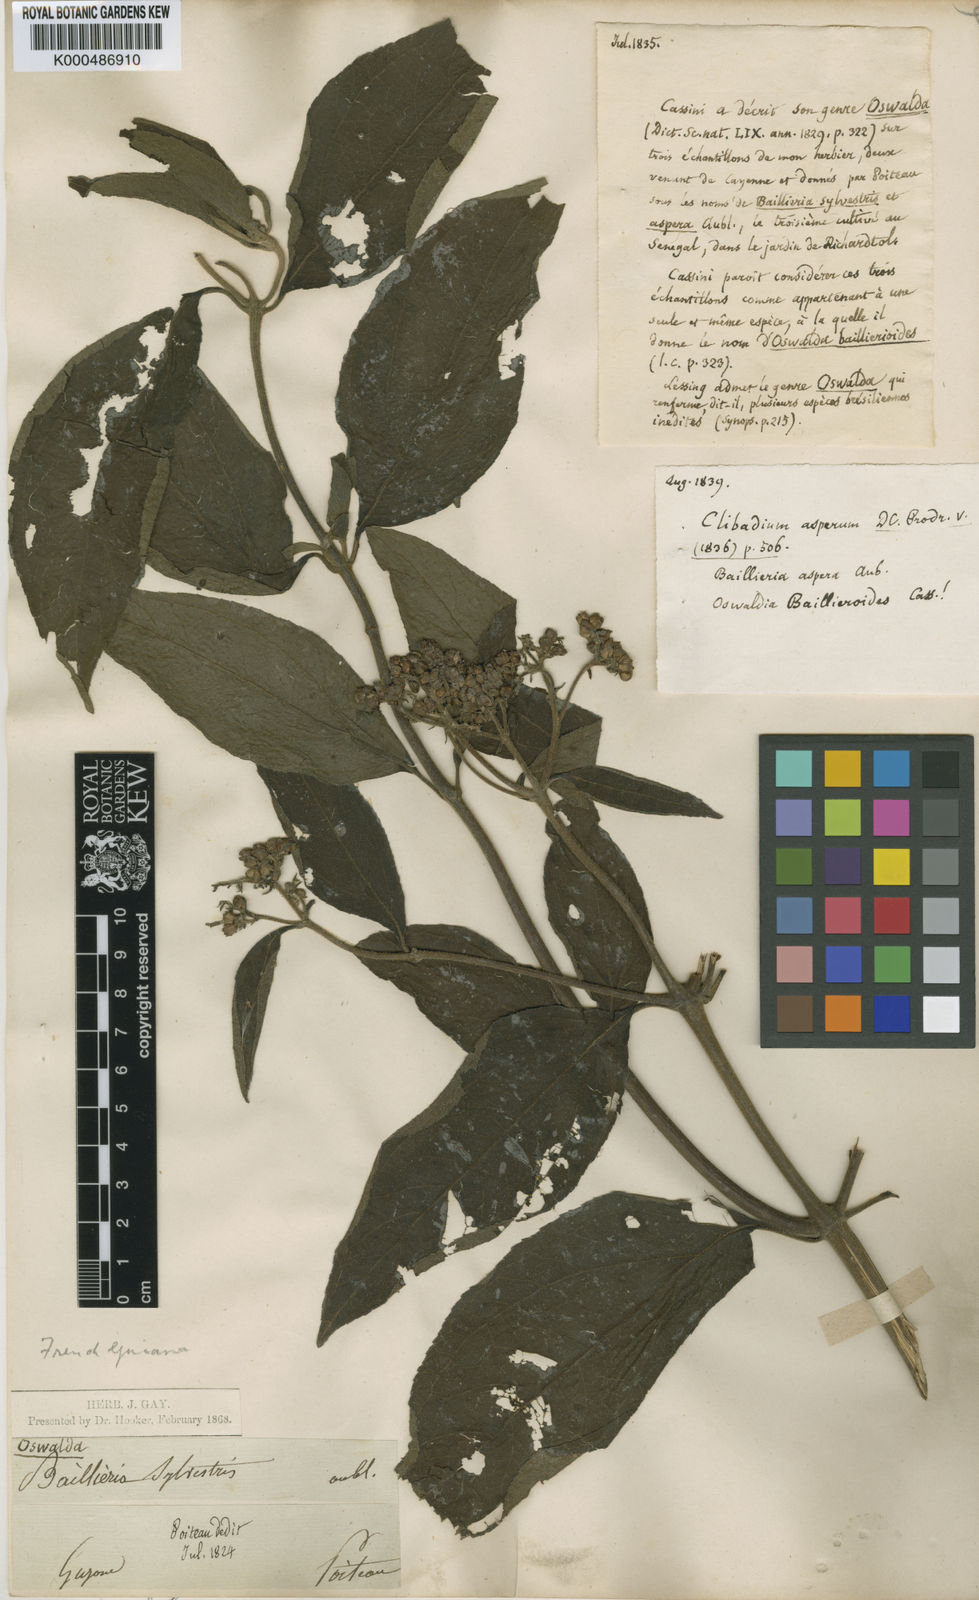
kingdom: Plantae
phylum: Tracheophyta
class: Magnoliopsida
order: Asterales
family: Asteraceae
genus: Clibadium
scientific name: Clibadium surinamense
